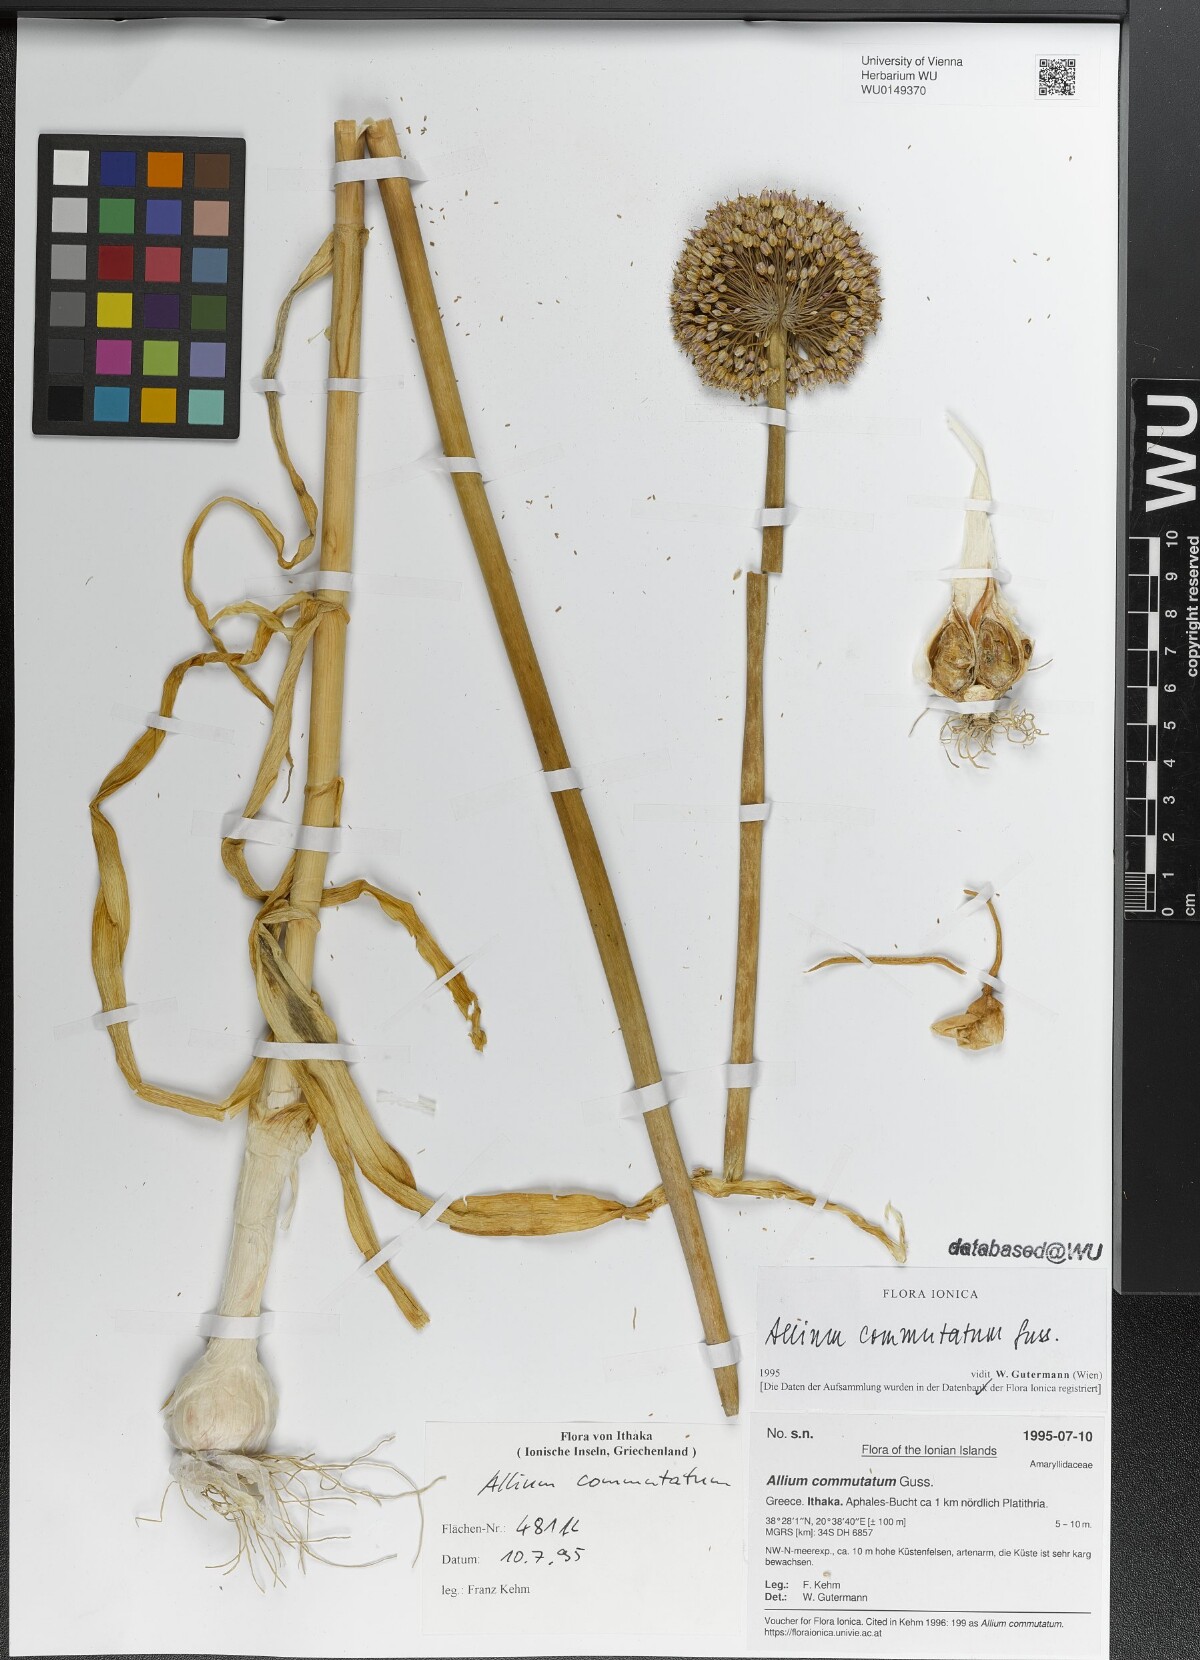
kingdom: Plantae
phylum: Tracheophyta
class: Liliopsida
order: Asparagales
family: Amaryllidaceae
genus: Allium
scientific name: Allium commutatum
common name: Sea garlic
